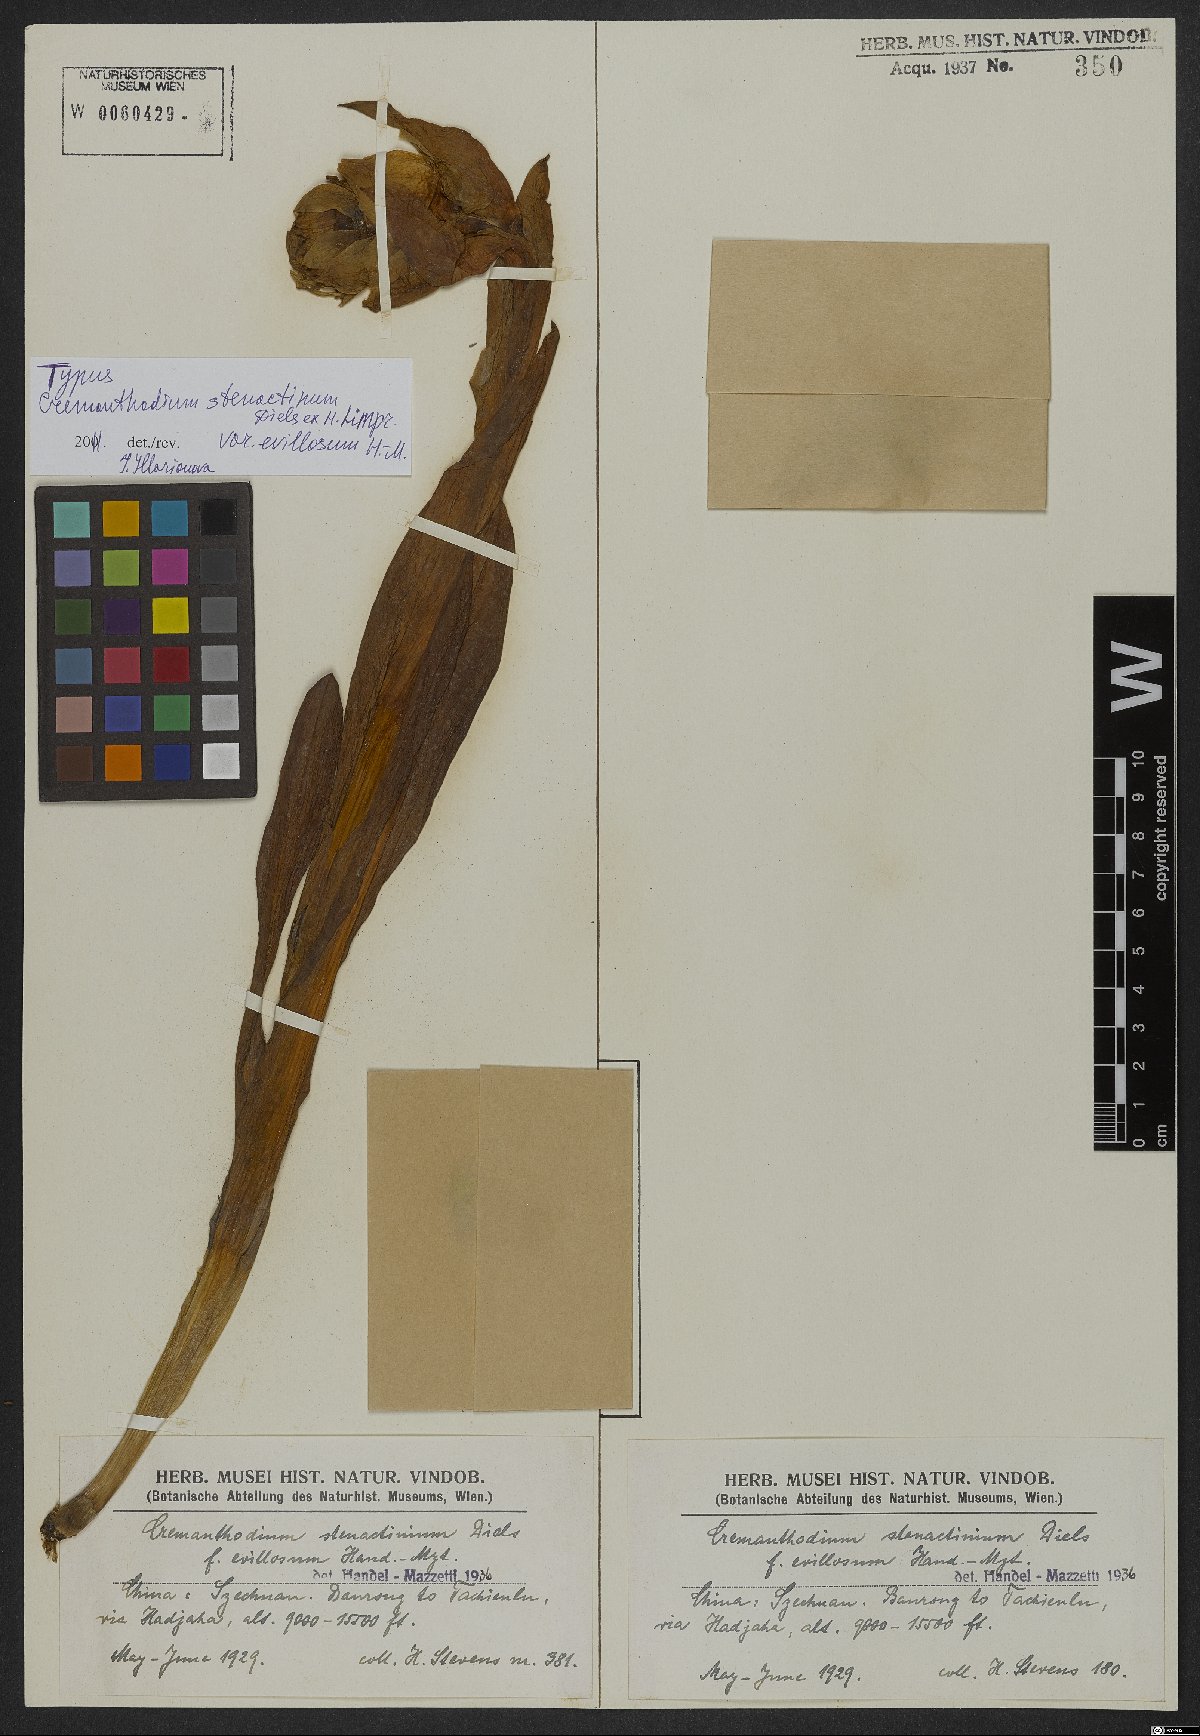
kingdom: Plantae
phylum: Tracheophyta
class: Magnoliopsida
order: Asterales
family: Asteraceae
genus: Cremanthodium
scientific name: Cremanthodium stenactinium
